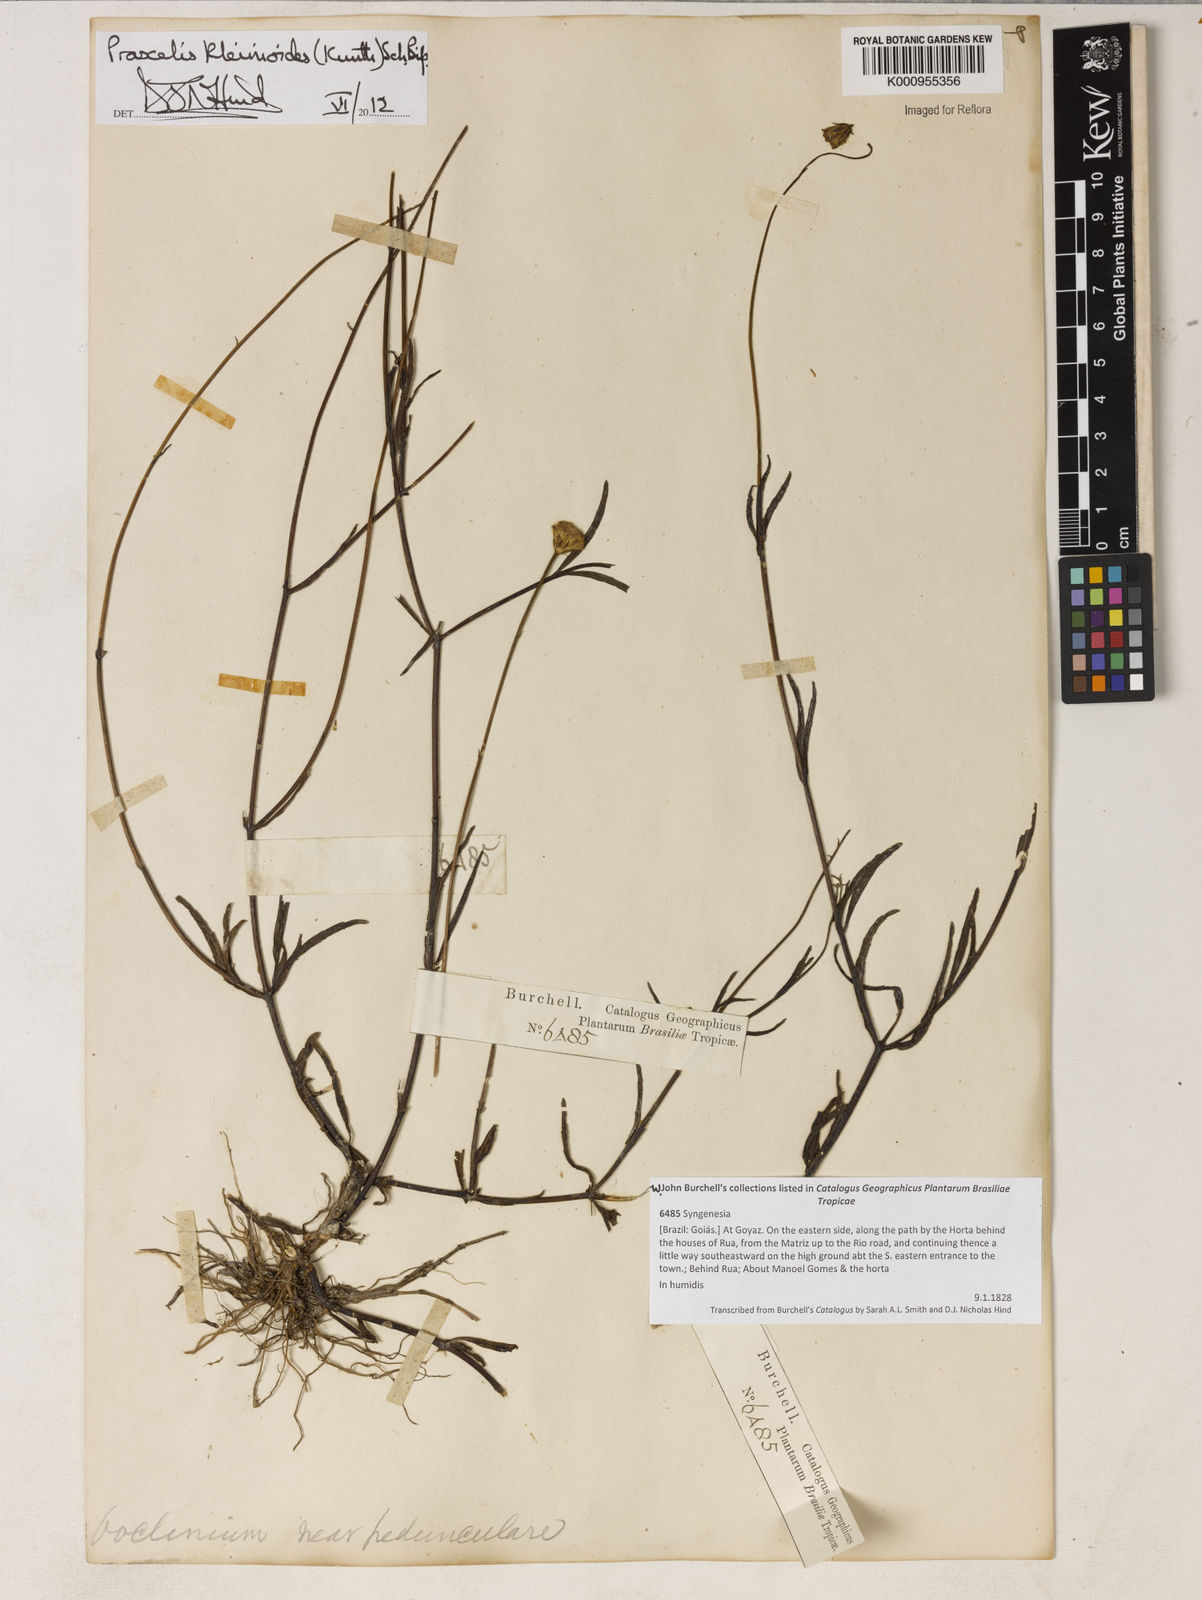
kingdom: Plantae
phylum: Tracheophyta
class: Magnoliopsida
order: Asterales
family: Asteraceae
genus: Praxelis
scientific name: Praxelis kleinioides
